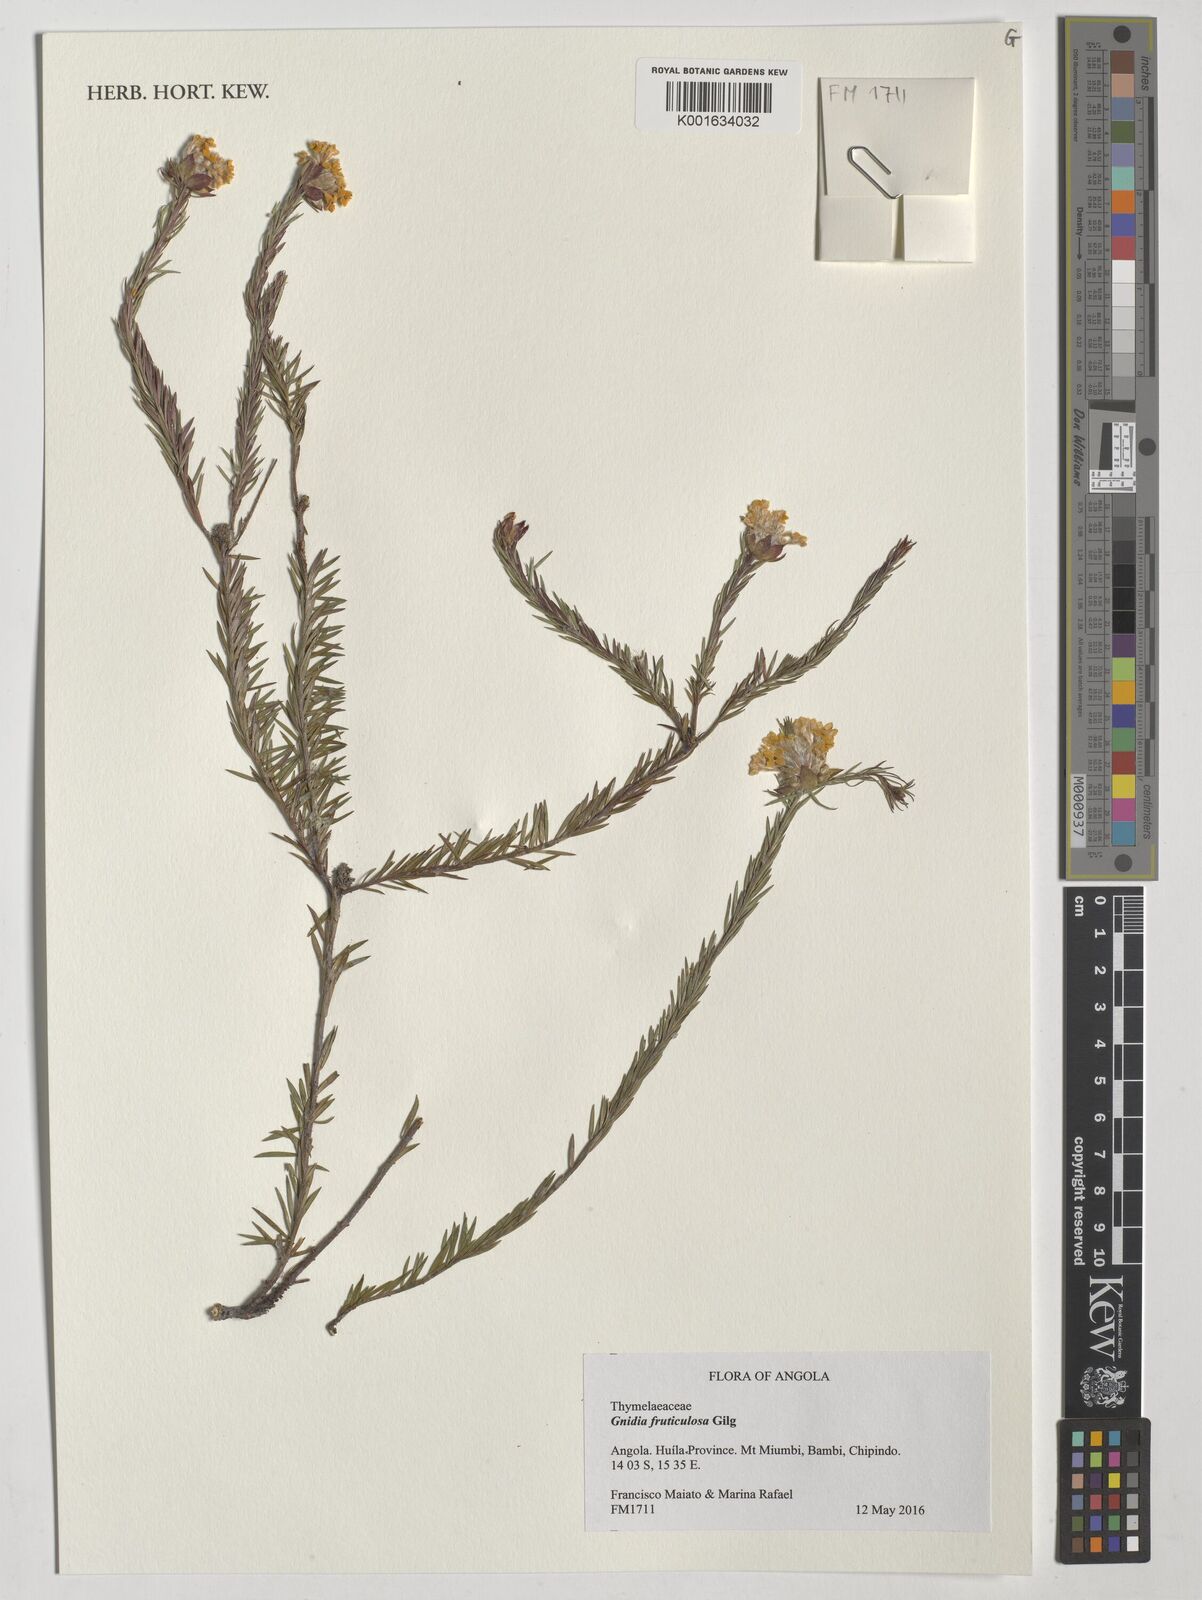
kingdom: Plantae
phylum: Tracheophyta
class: Magnoliopsida
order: Malvales
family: Thymelaeaceae
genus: Gnidia
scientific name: Gnidia fruticulosa
